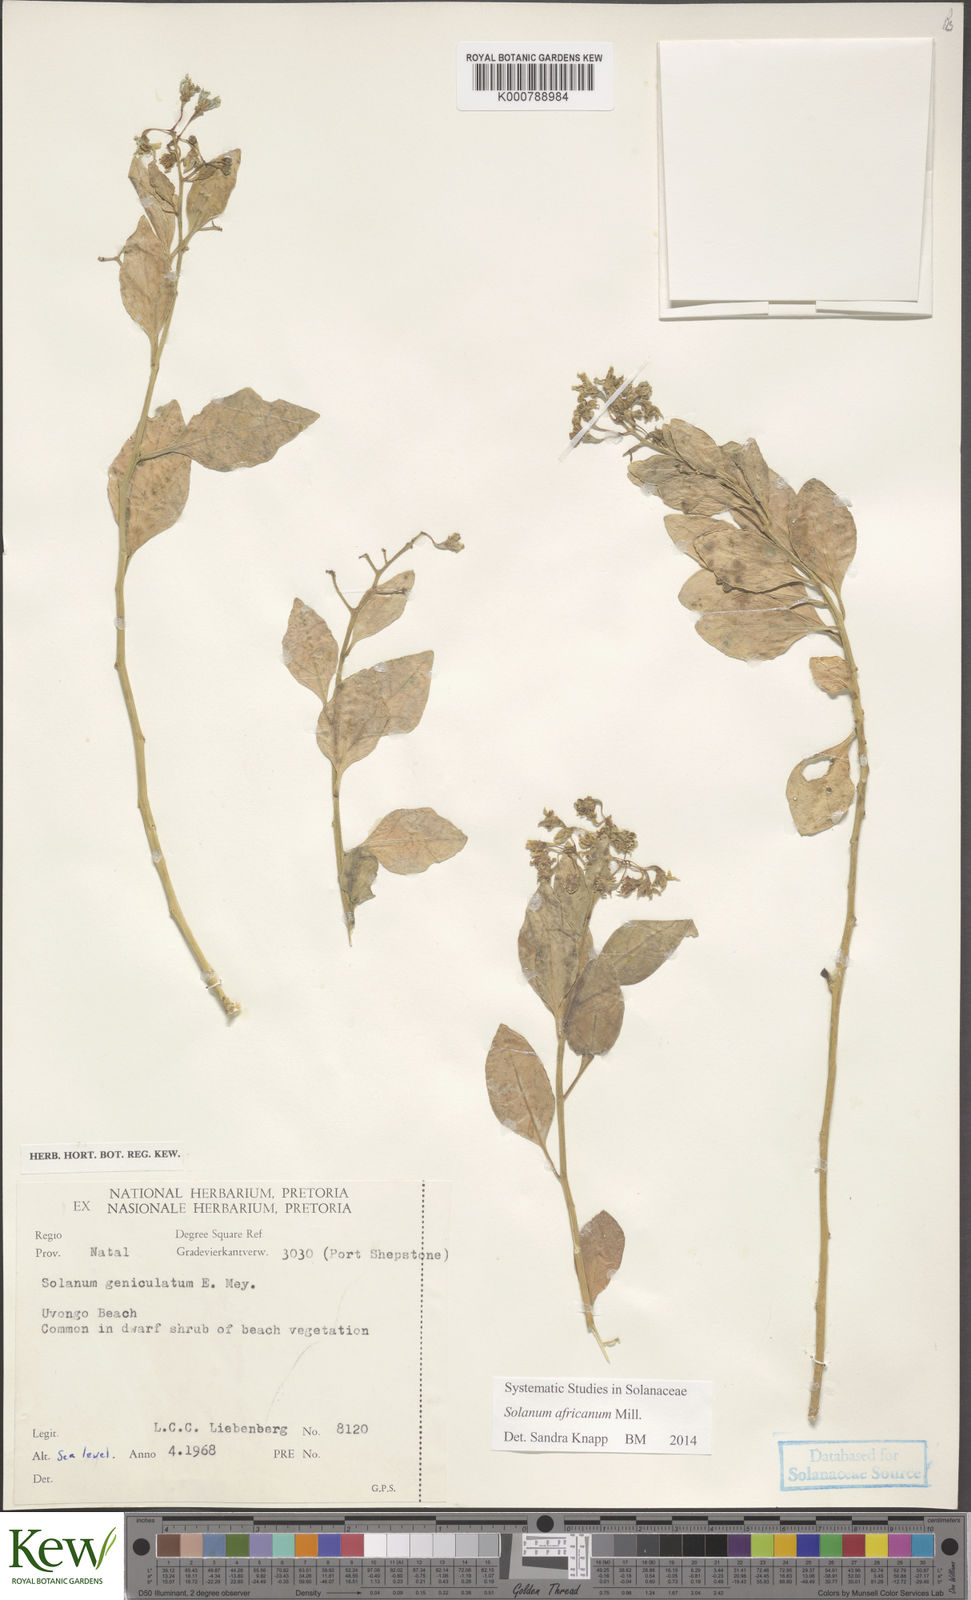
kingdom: Plantae
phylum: Tracheophyta
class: Magnoliopsida
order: Solanales
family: Solanaceae
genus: Solanum
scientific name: Solanum africanum
